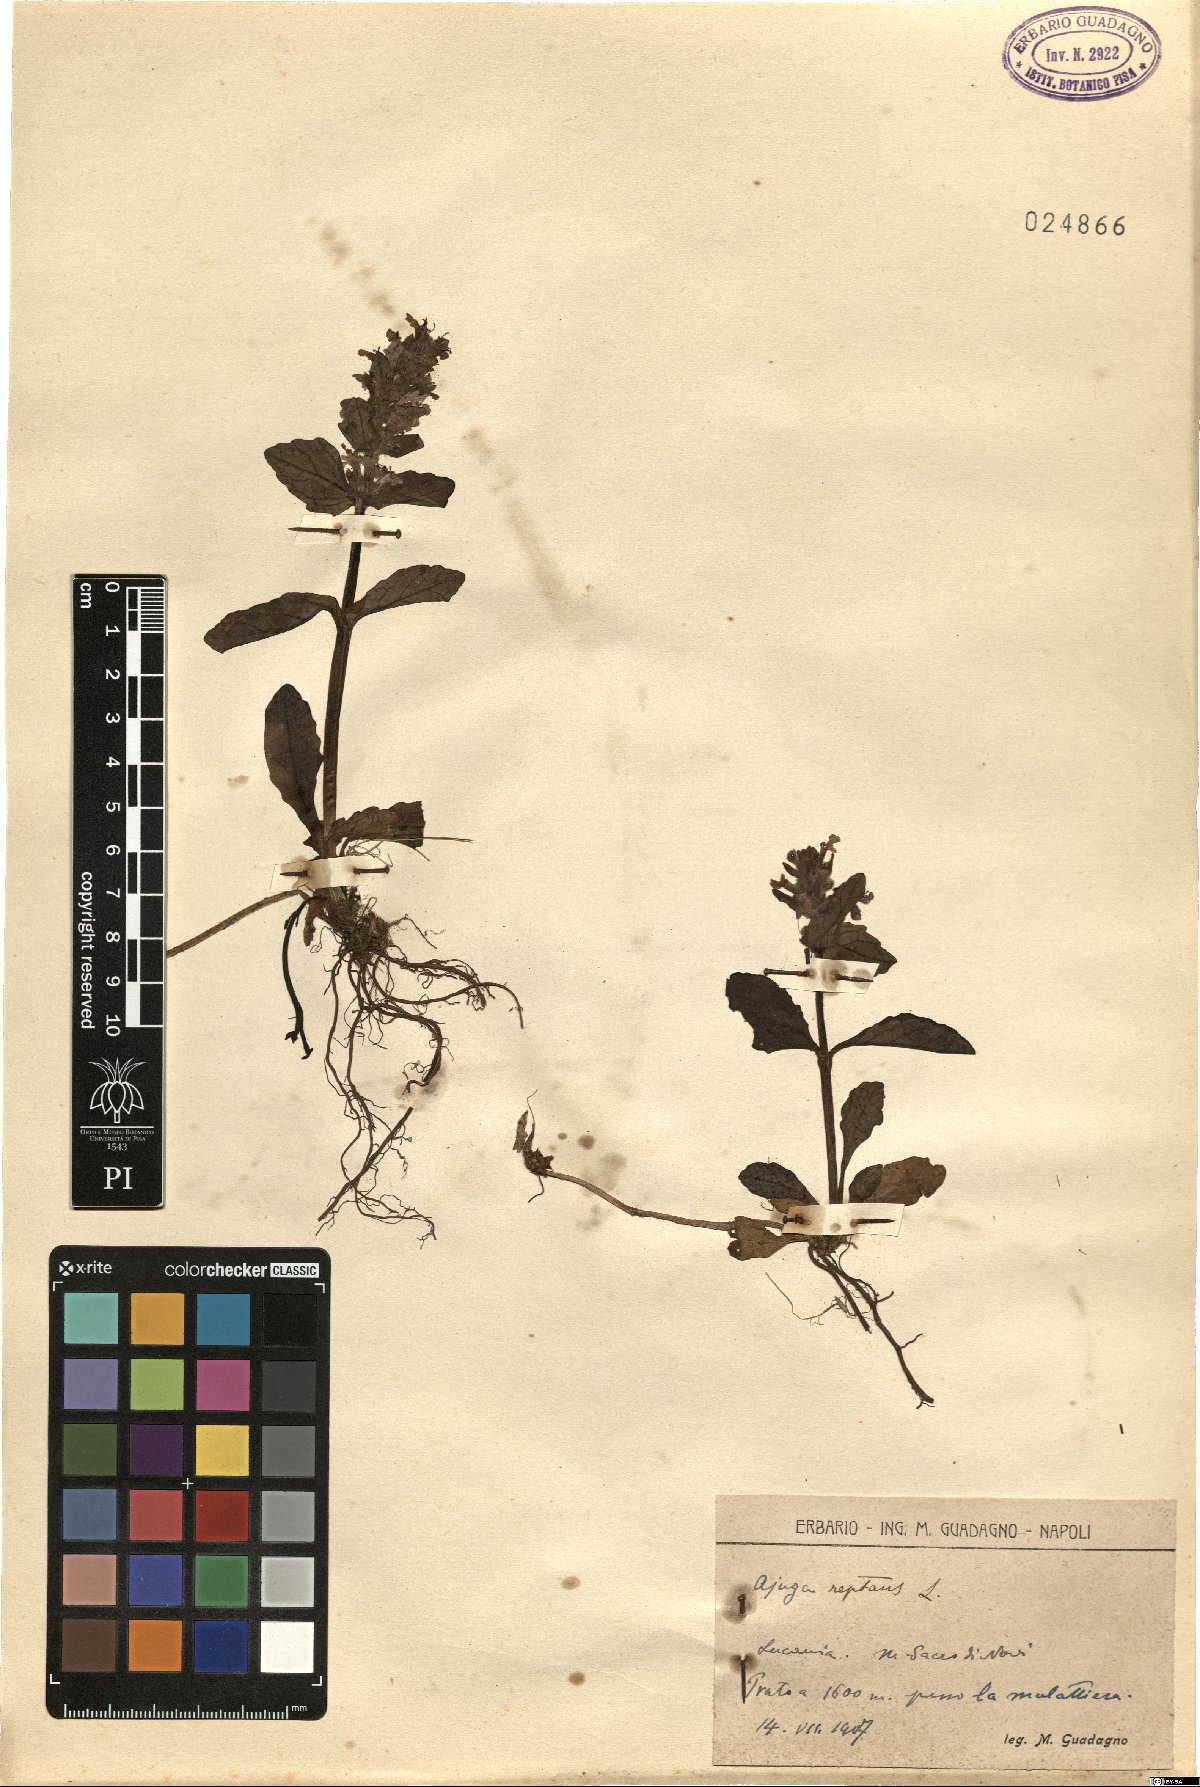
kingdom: Plantae
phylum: Tracheophyta
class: Magnoliopsida
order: Lamiales
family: Lamiaceae
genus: Ajuga
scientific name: Ajuga reptans
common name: Bugle
